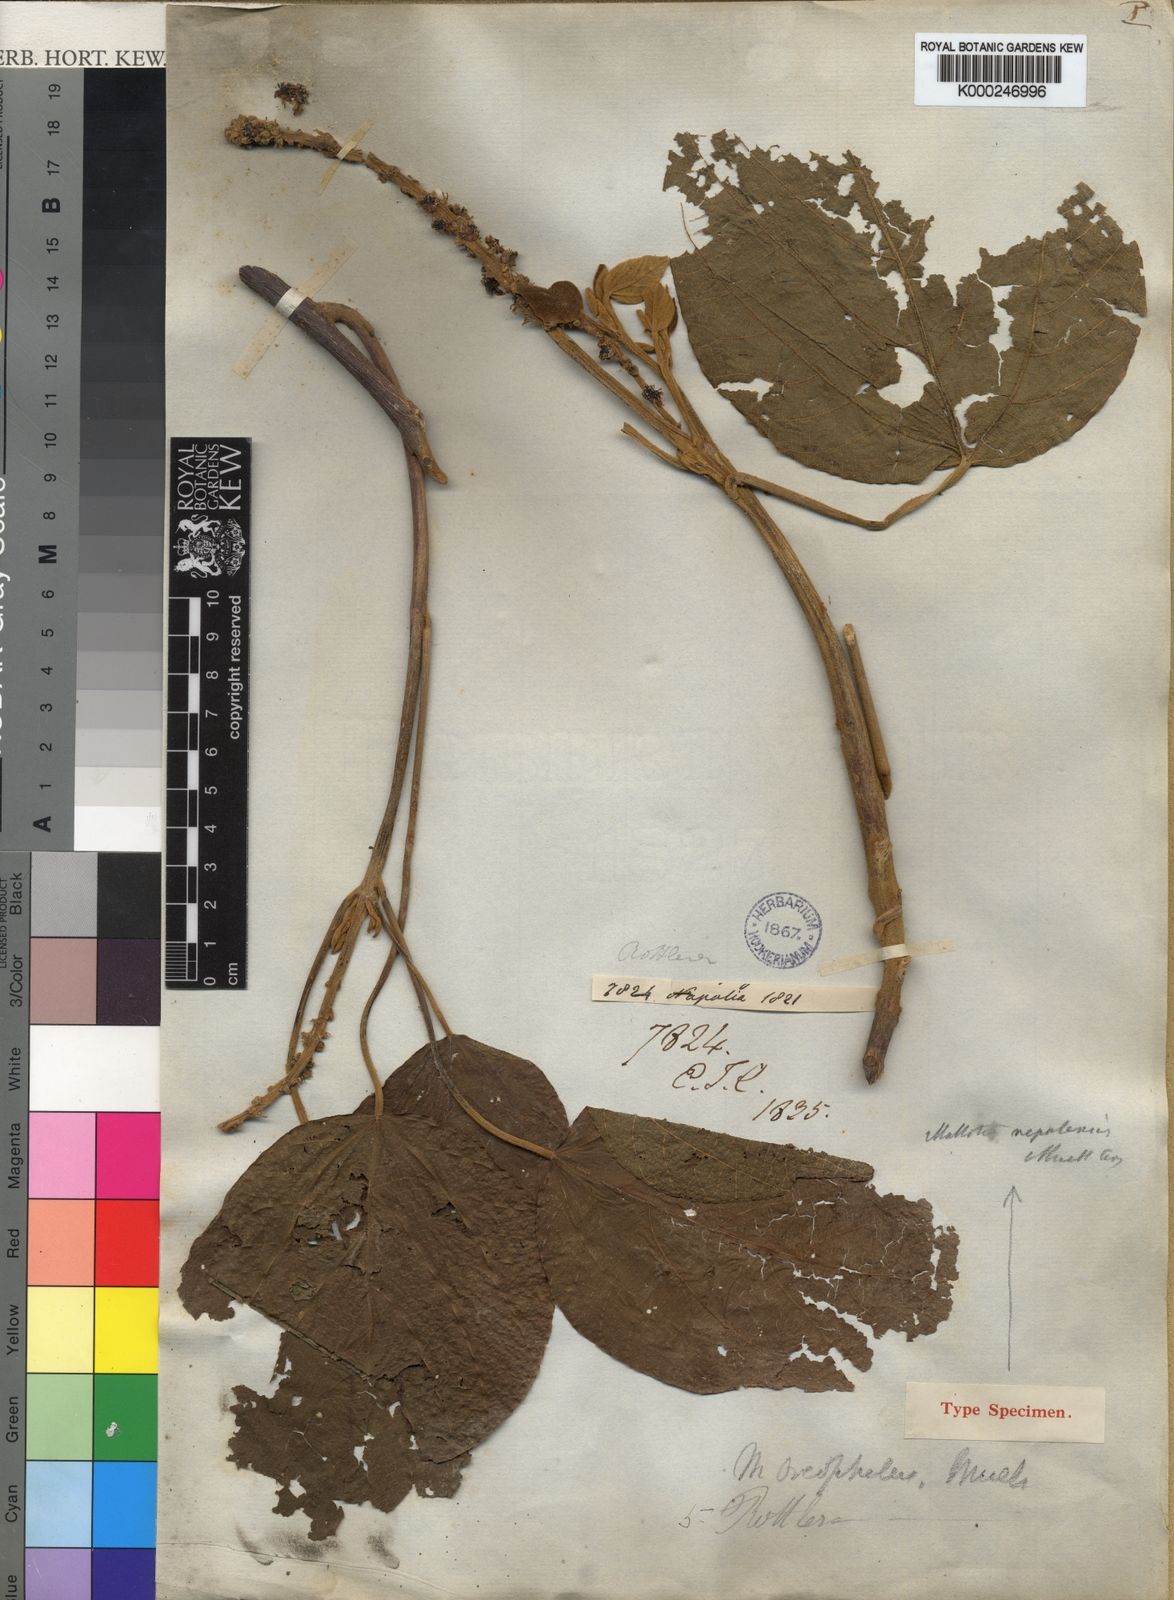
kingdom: Plantae
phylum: Tracheophyta
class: Magnoliopsida
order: Malpighiales
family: Euphorbiaceae
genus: Mallotus
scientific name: Mallotus
